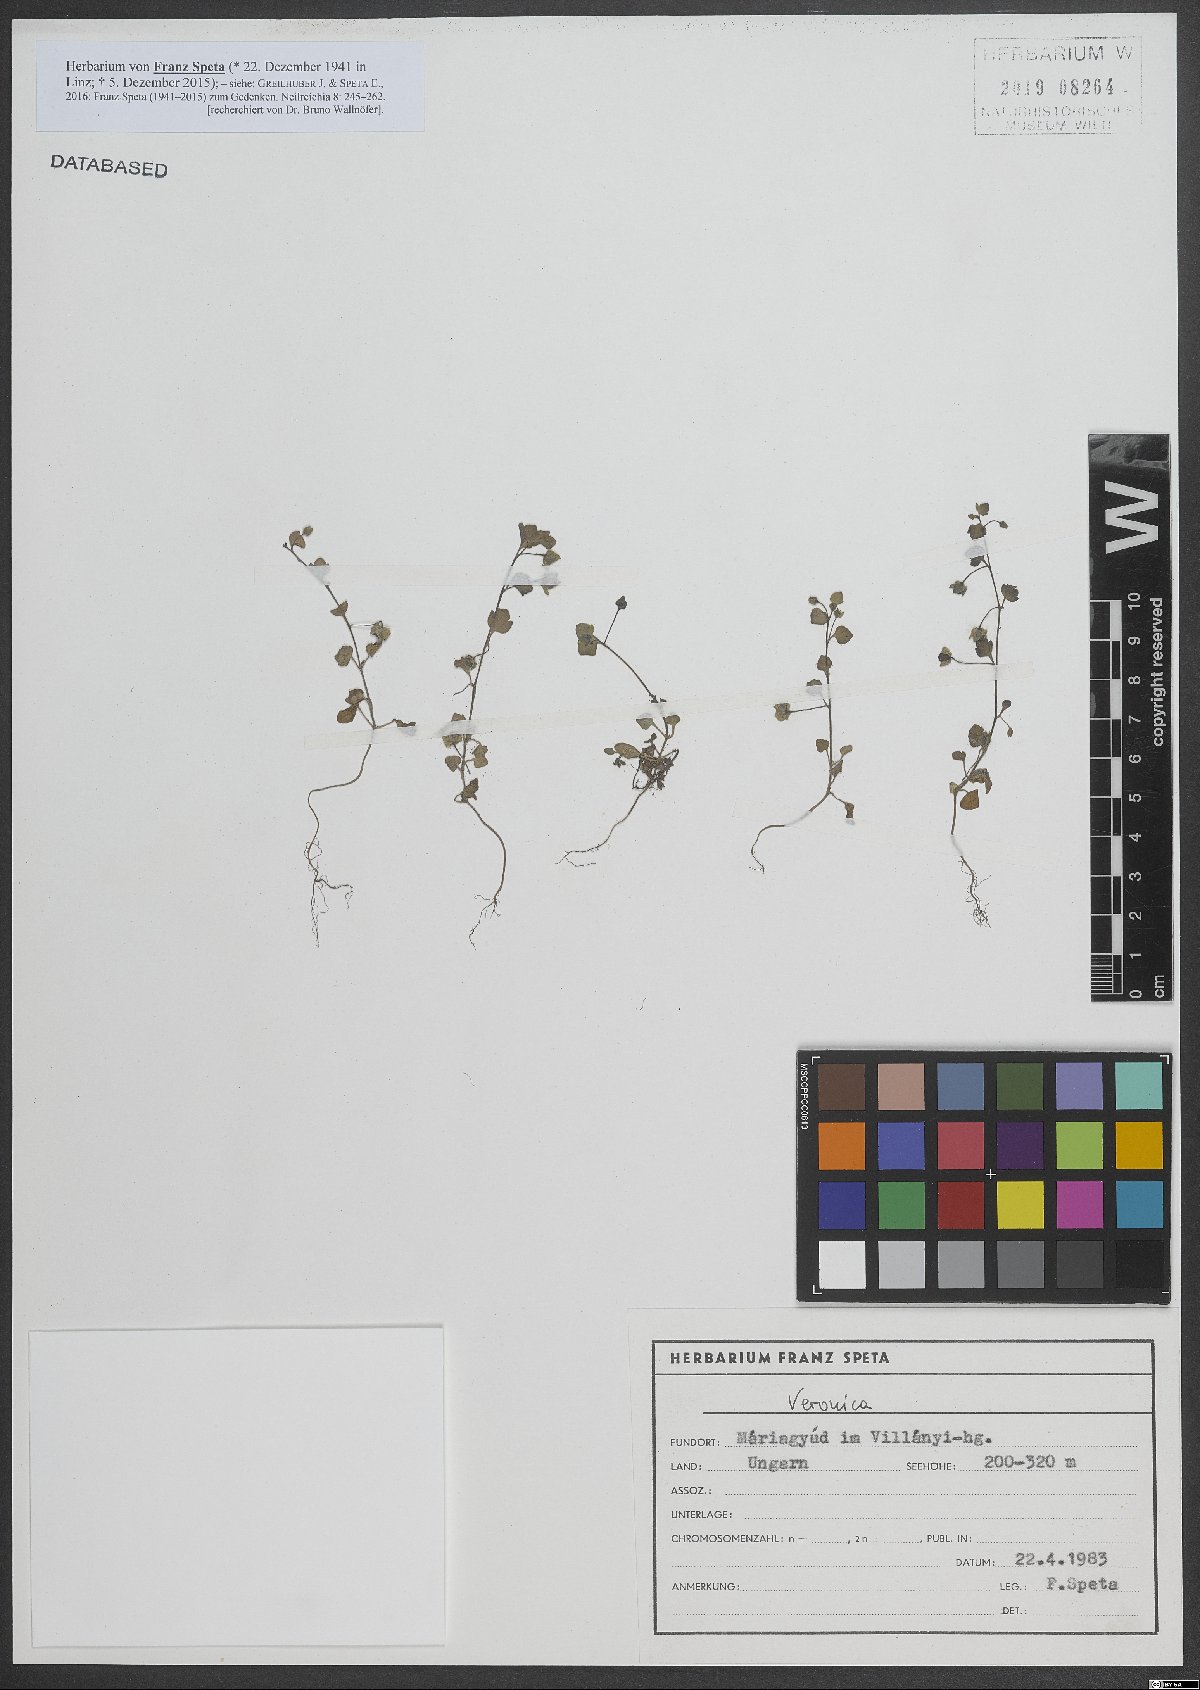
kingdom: Plantae
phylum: Tracheophyta
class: Magnoliopsida
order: Lamiales
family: Plantaginaceae
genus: Veronica
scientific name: Veronica
